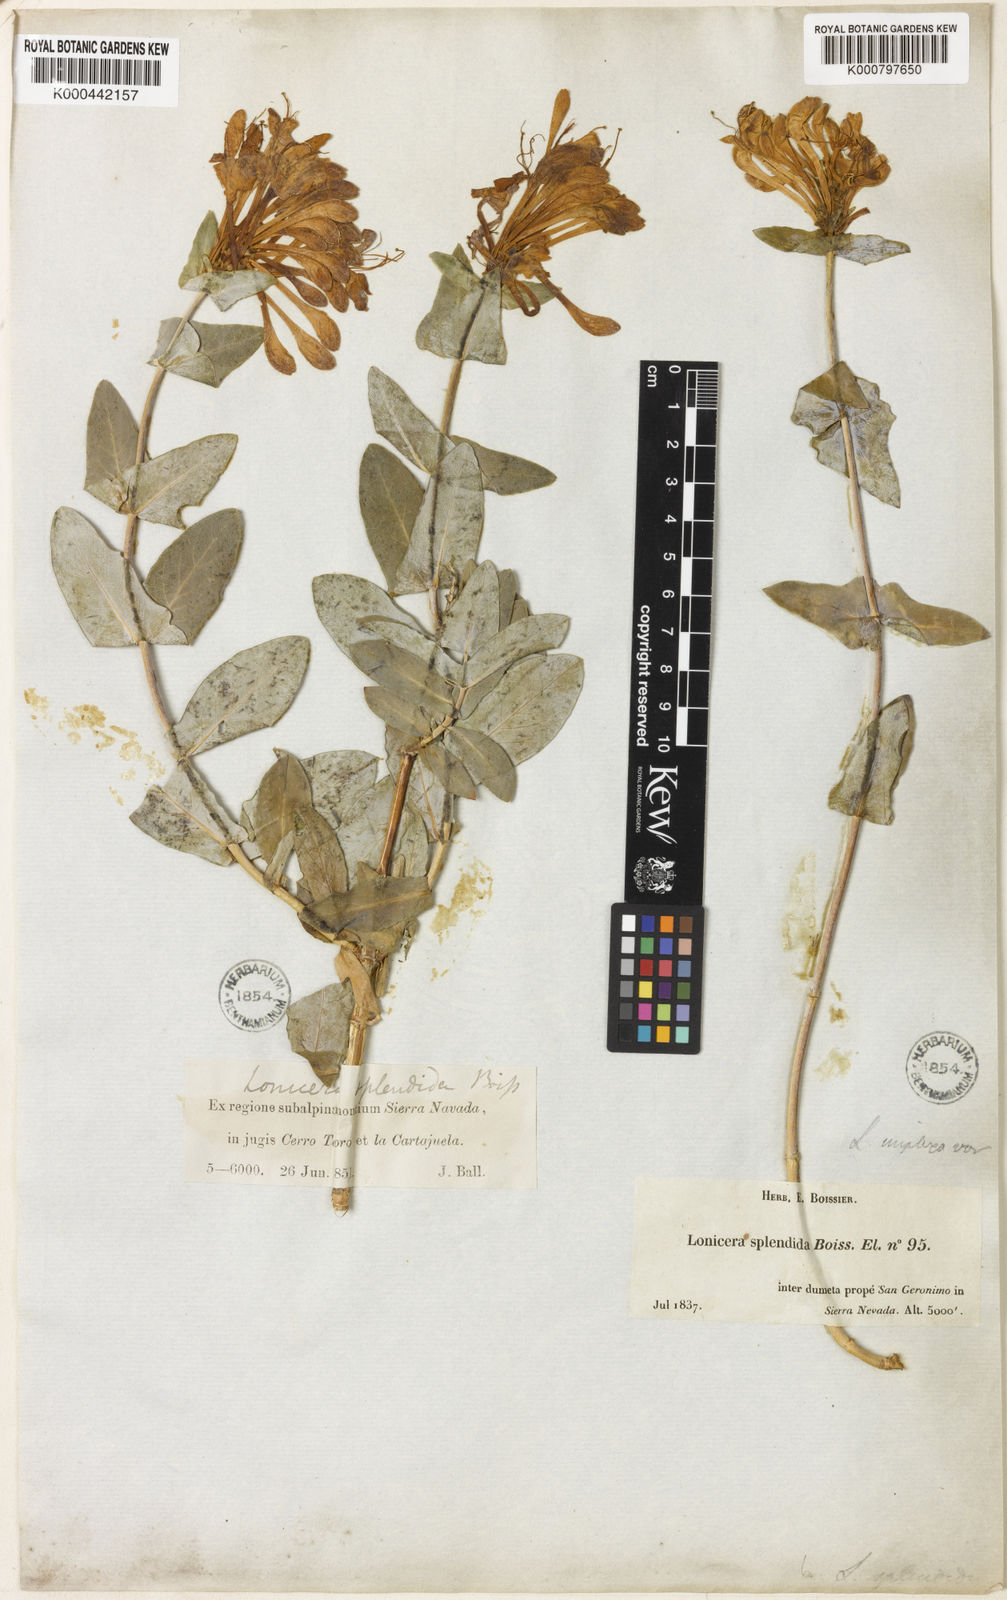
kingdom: Plantae
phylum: Tracheophyta
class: Magnoliopsida
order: Dipsacales
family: Caprifoliaceae
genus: Lonicera
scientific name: Lonicera splendida
